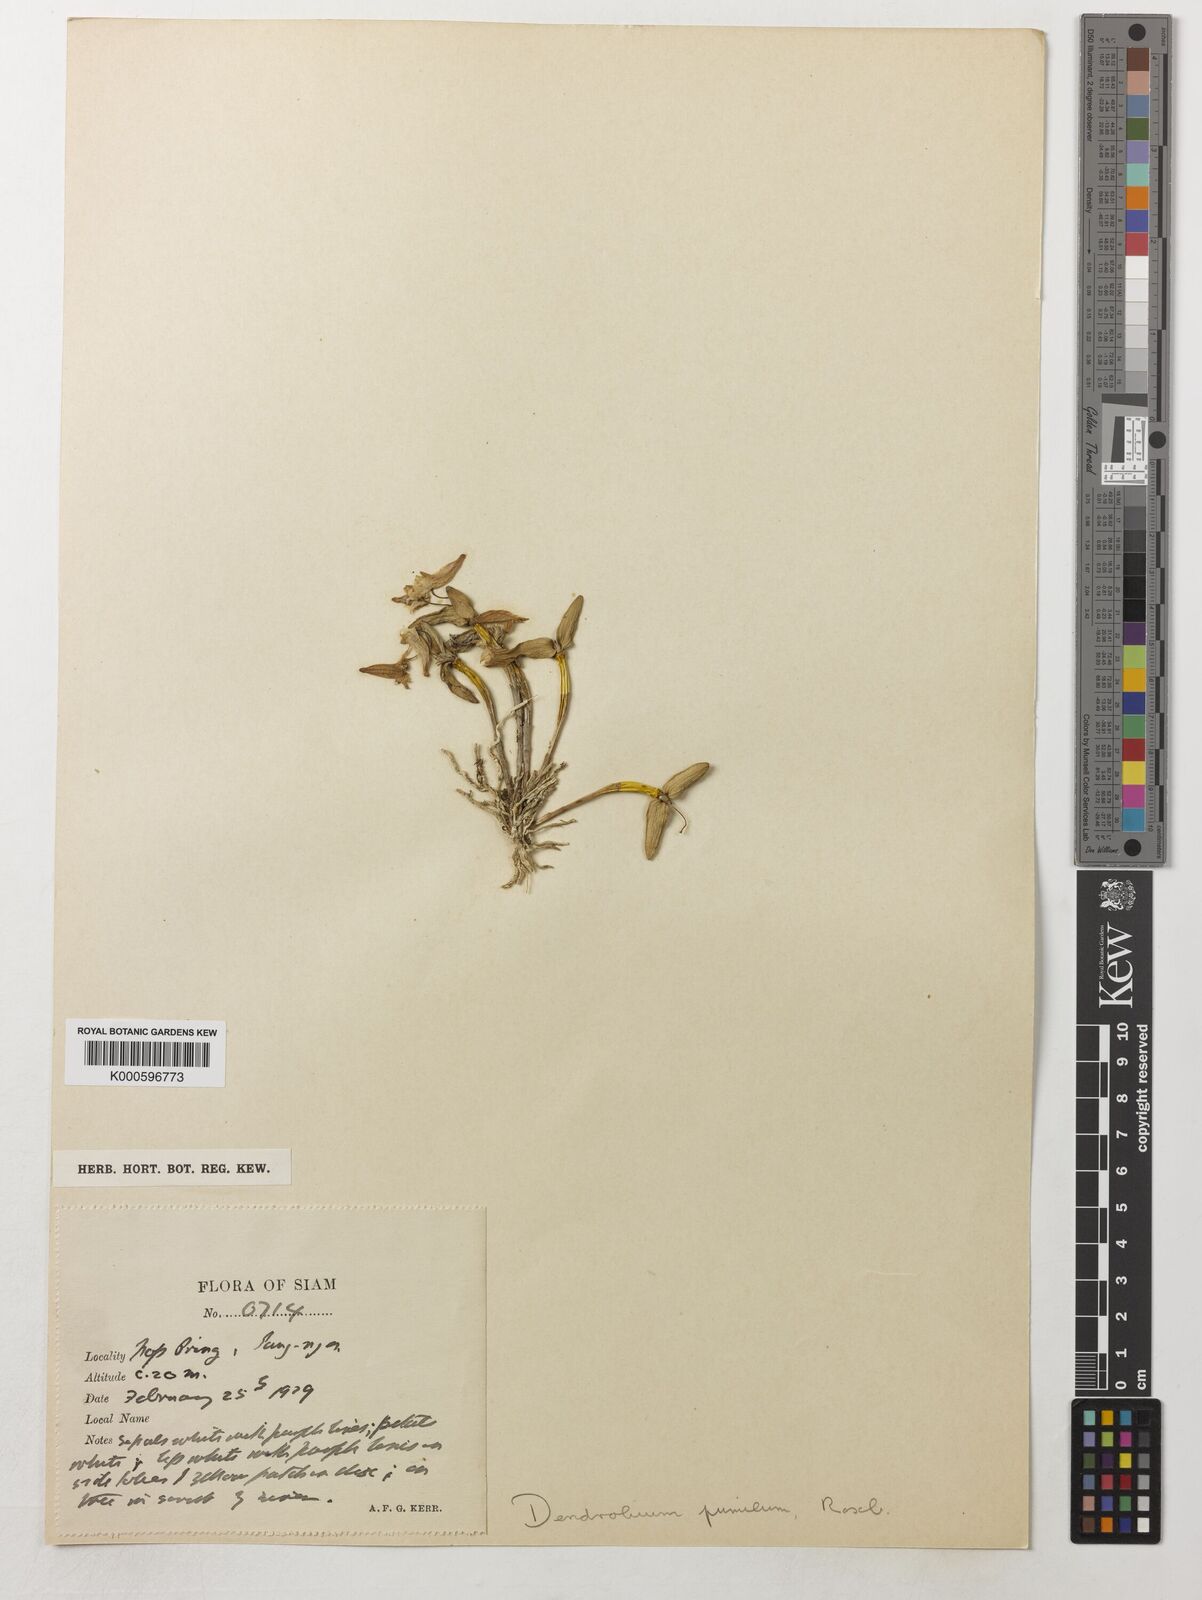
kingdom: Plantae
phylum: Tracheophyta
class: Liliopsida
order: Asparagales
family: Orchidaceae
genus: Dendrobium
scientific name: Dendrobium pachyphyllum
